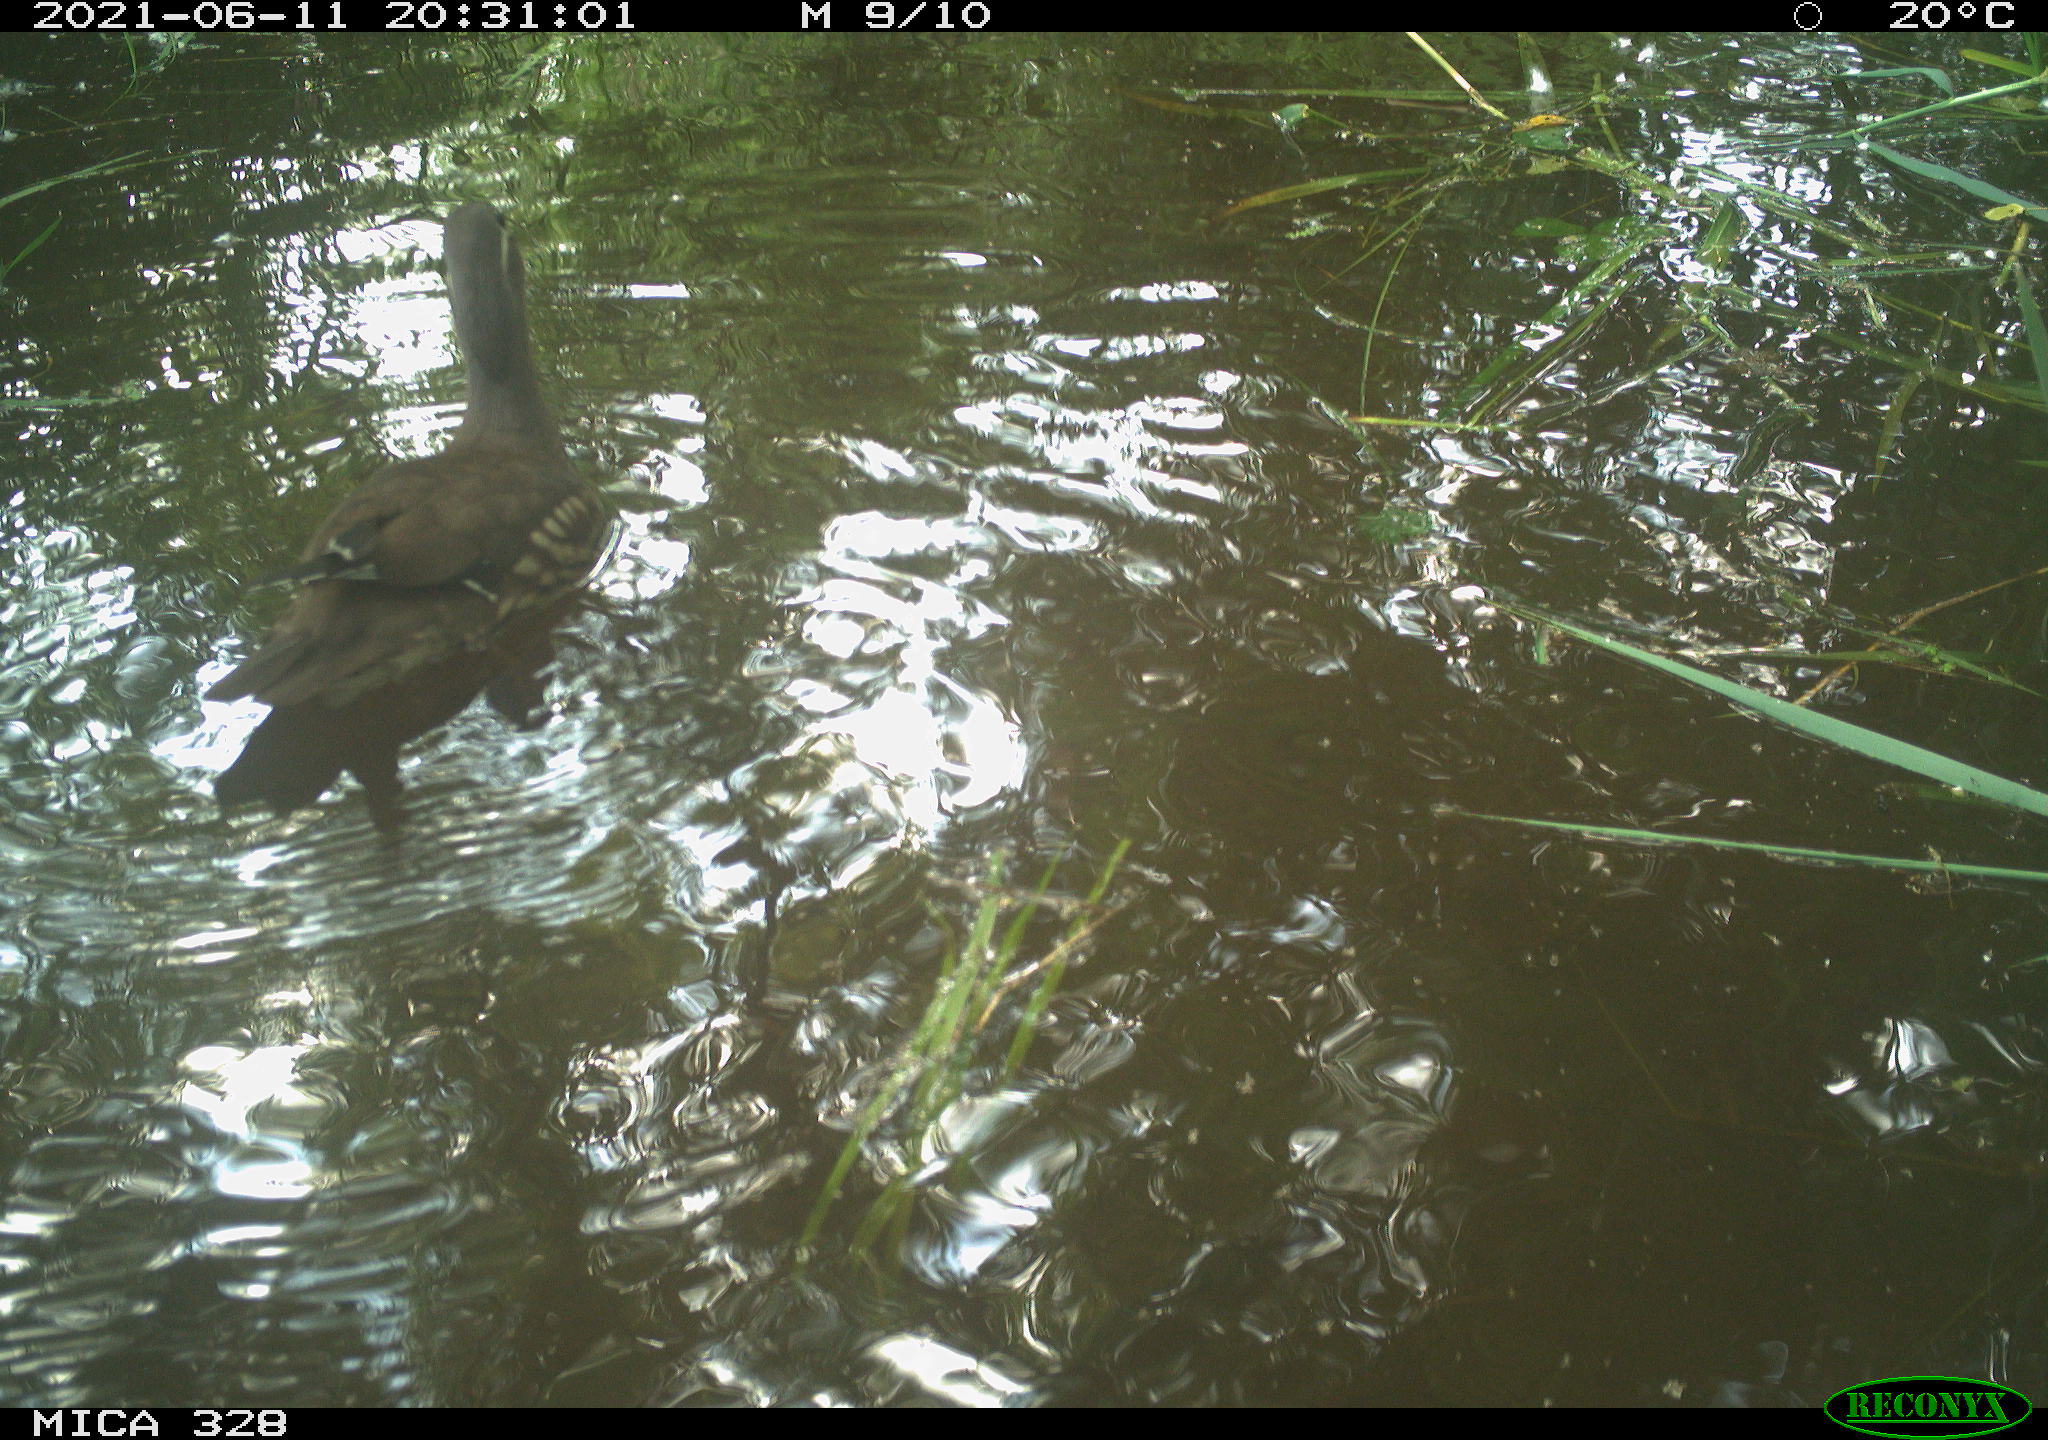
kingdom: Animalia
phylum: Chordata
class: Aves
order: Anseriformes
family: Anatidae
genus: Aix
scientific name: Aix galericulata
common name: Mandarin duck
